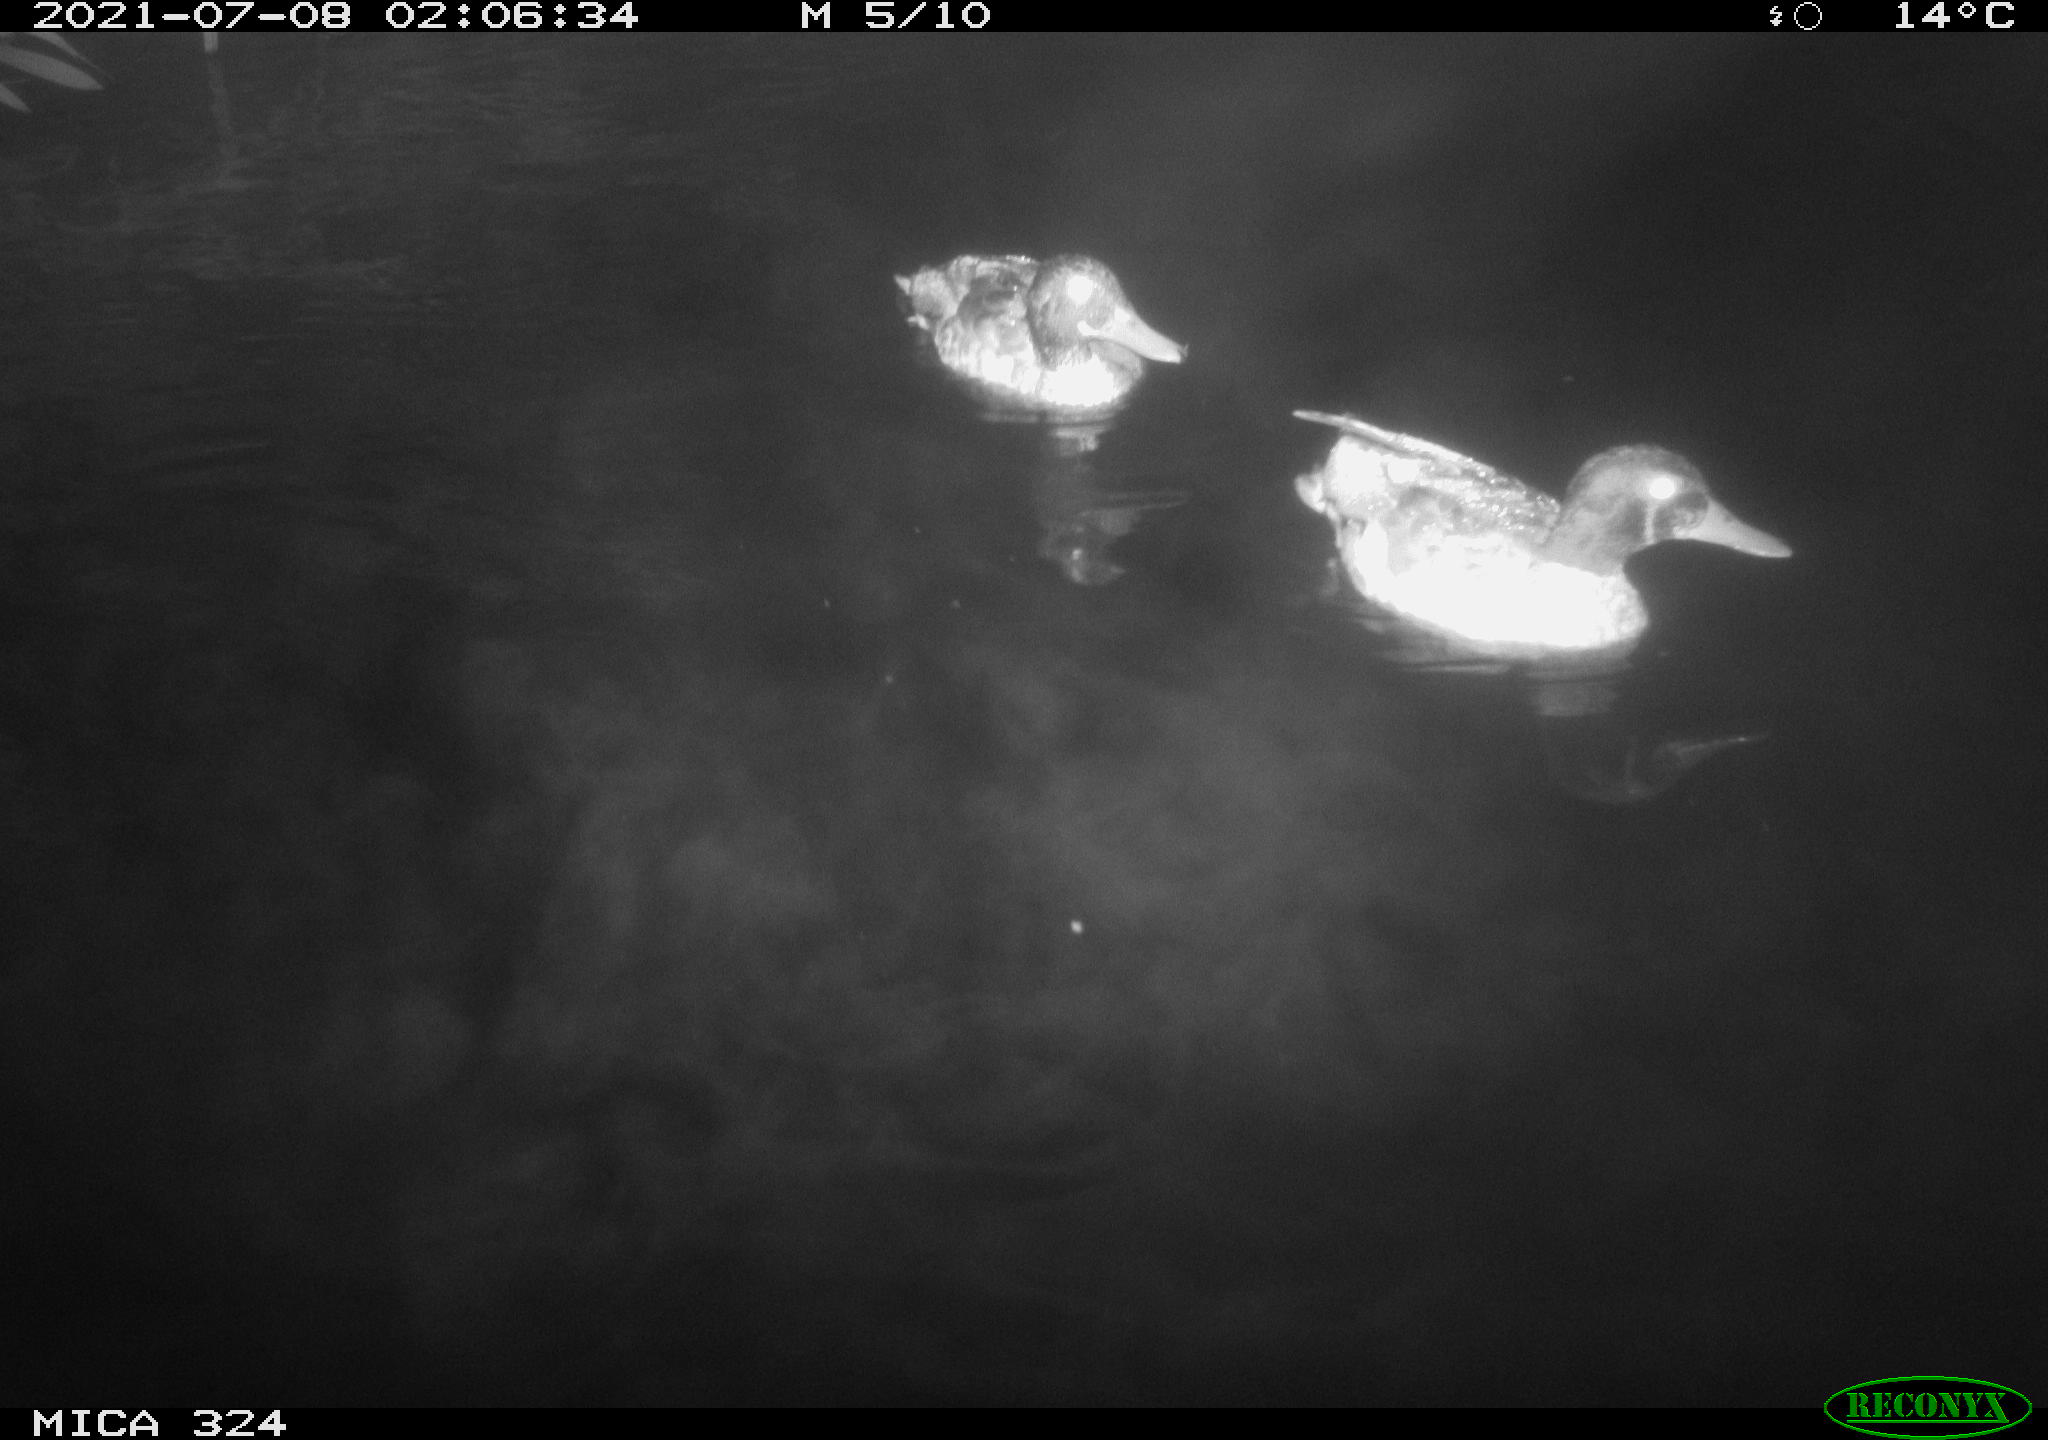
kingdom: Animalia
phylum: Chordata
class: Aves
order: Anseriformes
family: Anatidae
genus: Anas
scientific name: Anas platyrhynchos
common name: Mallard
